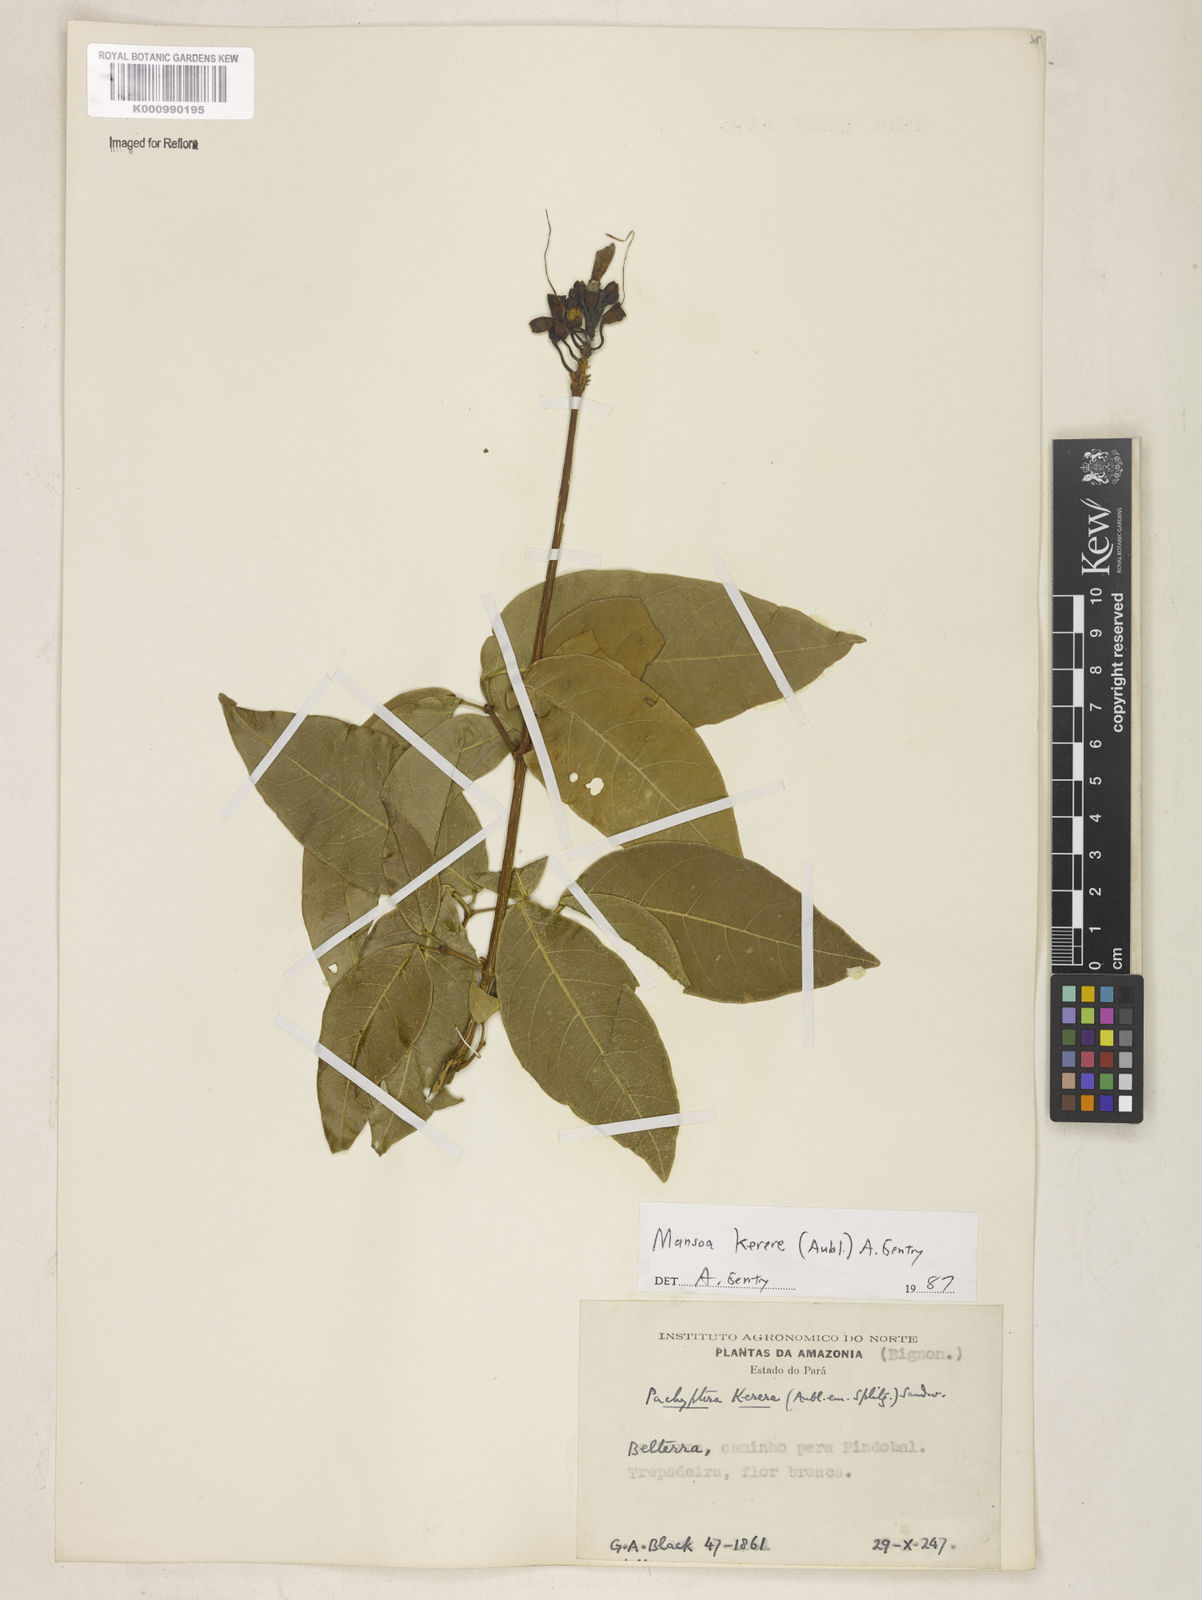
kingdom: Plantae
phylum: Tracheophyta
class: Magnoliopsida
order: Lamiales
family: Bignoniaceae
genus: Pachyptera
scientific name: Pachyptera kerere
